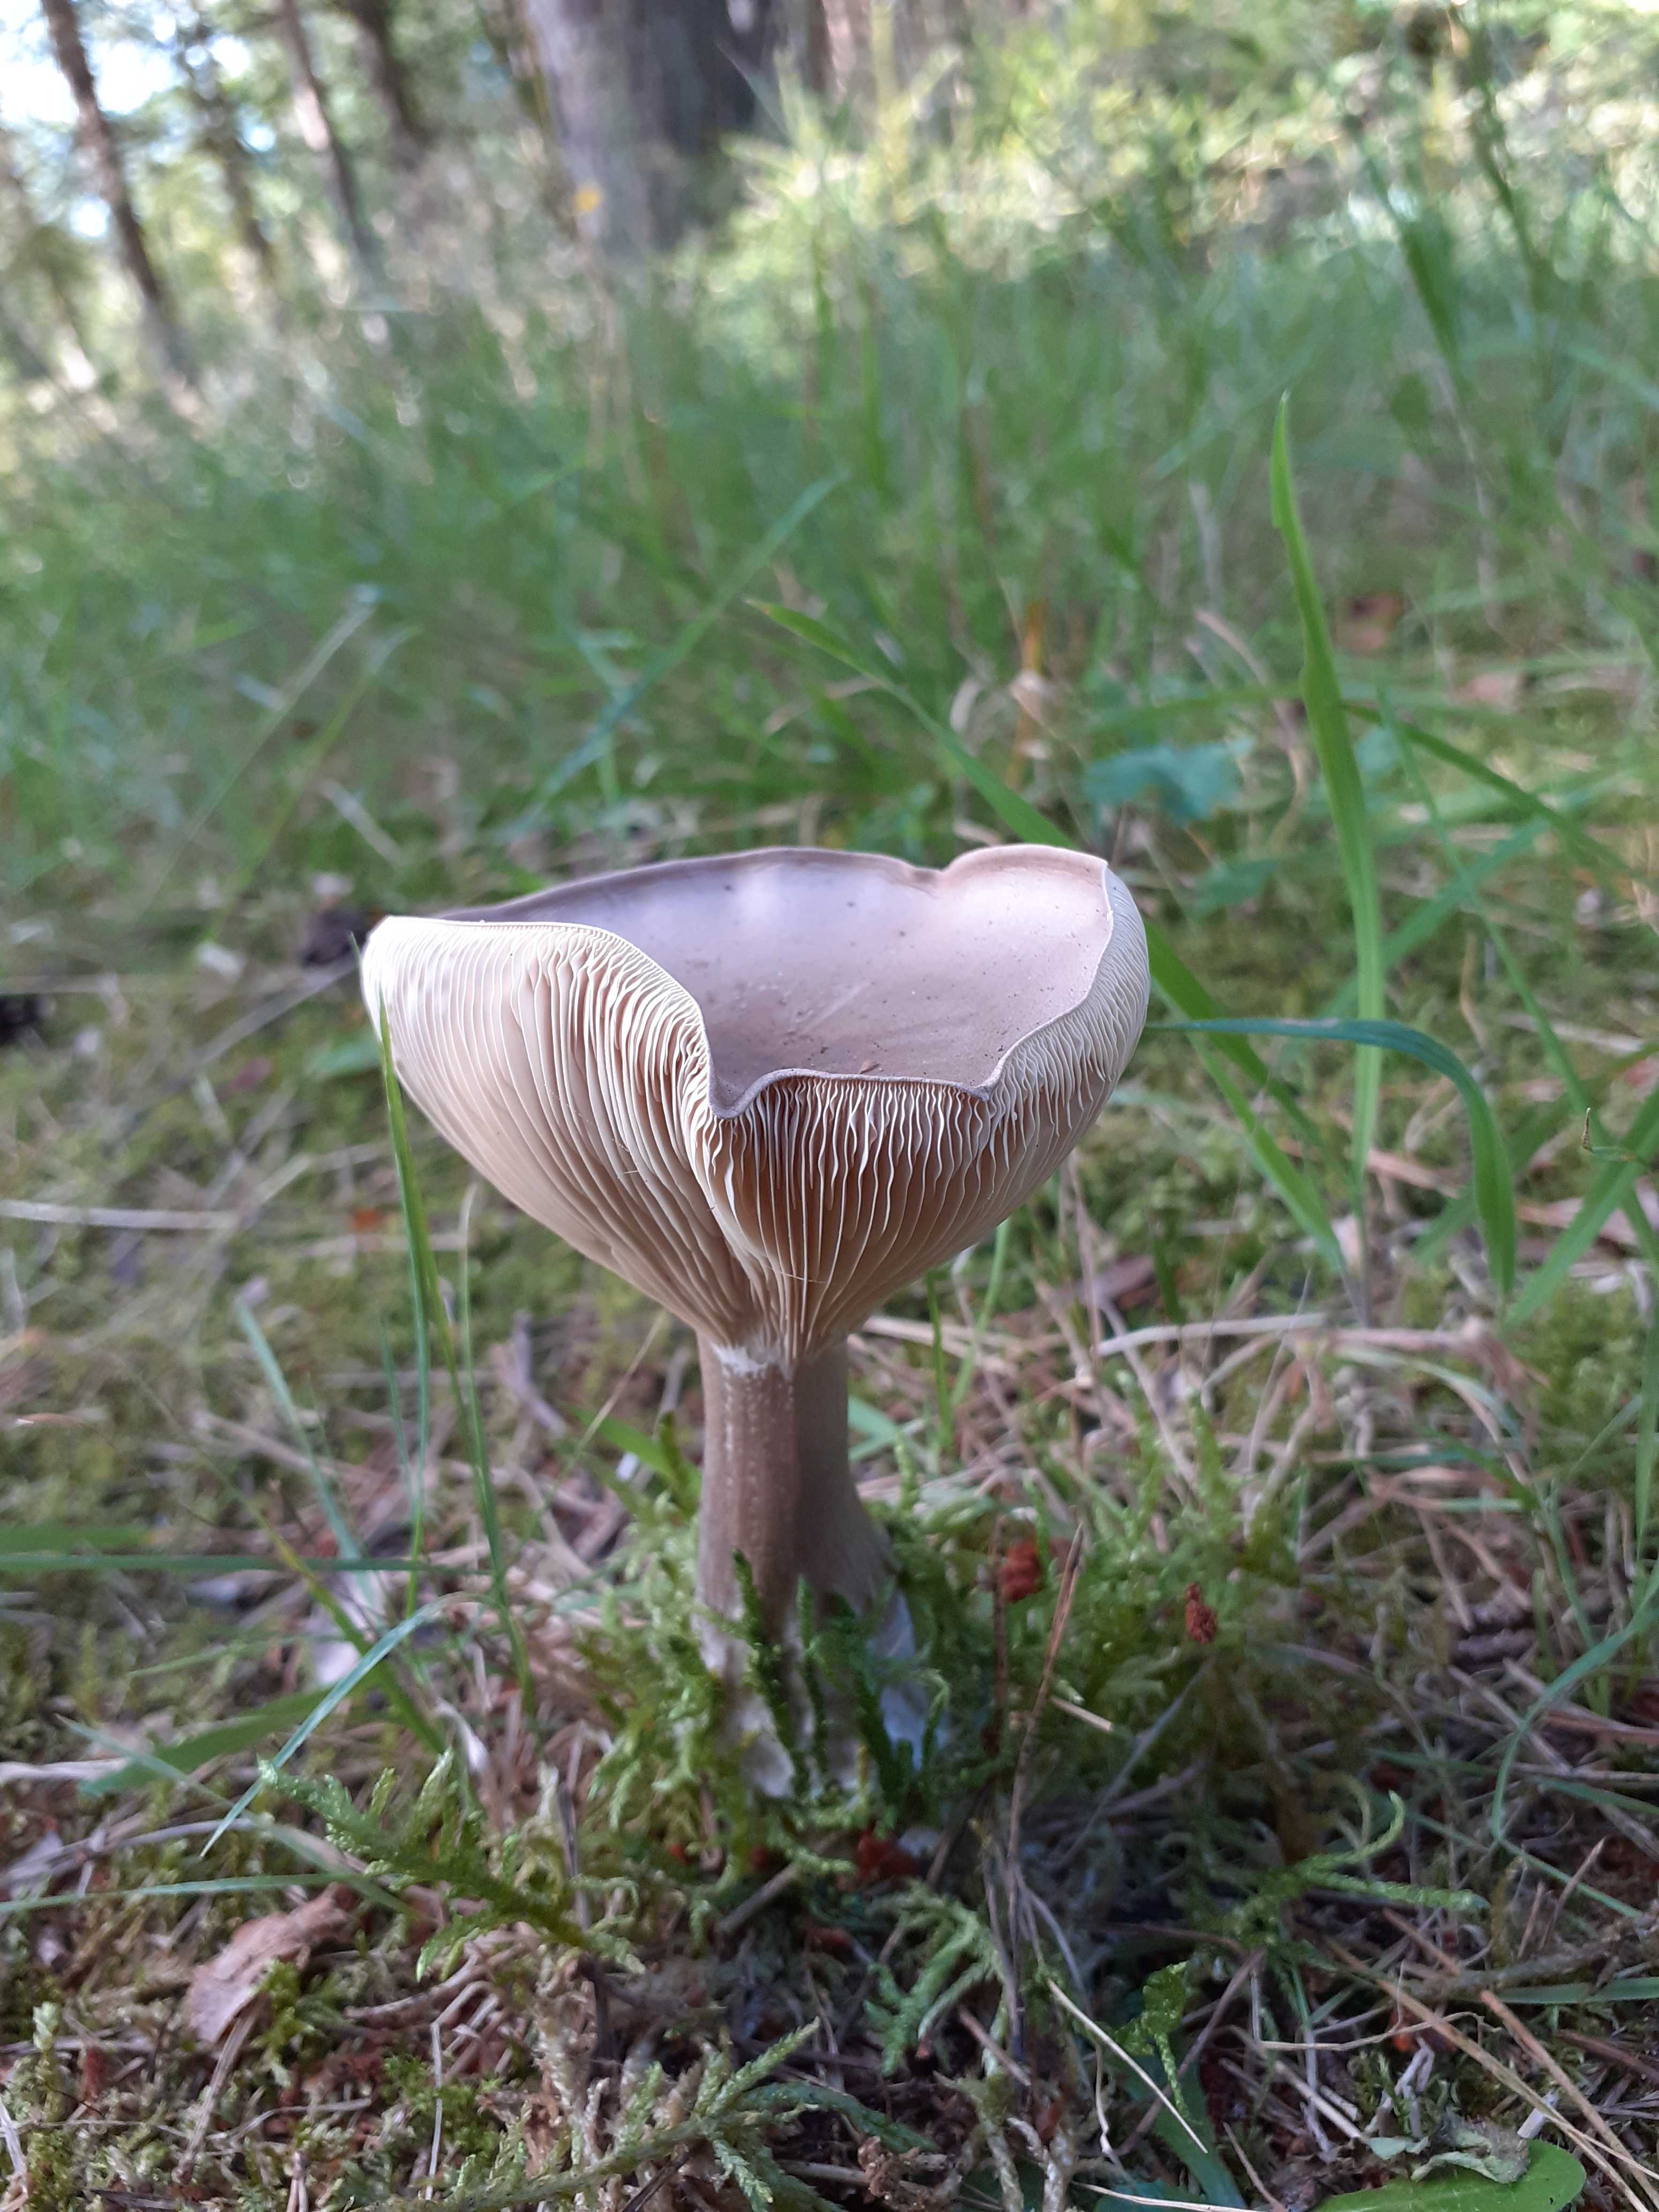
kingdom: Fungi
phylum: Basidiomycota
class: Agaricomycetes
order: Agaricales
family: Hygrophoraceae
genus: Ampulloclitocybe
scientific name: Ampulloclitocybe clavipes
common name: køllefod
